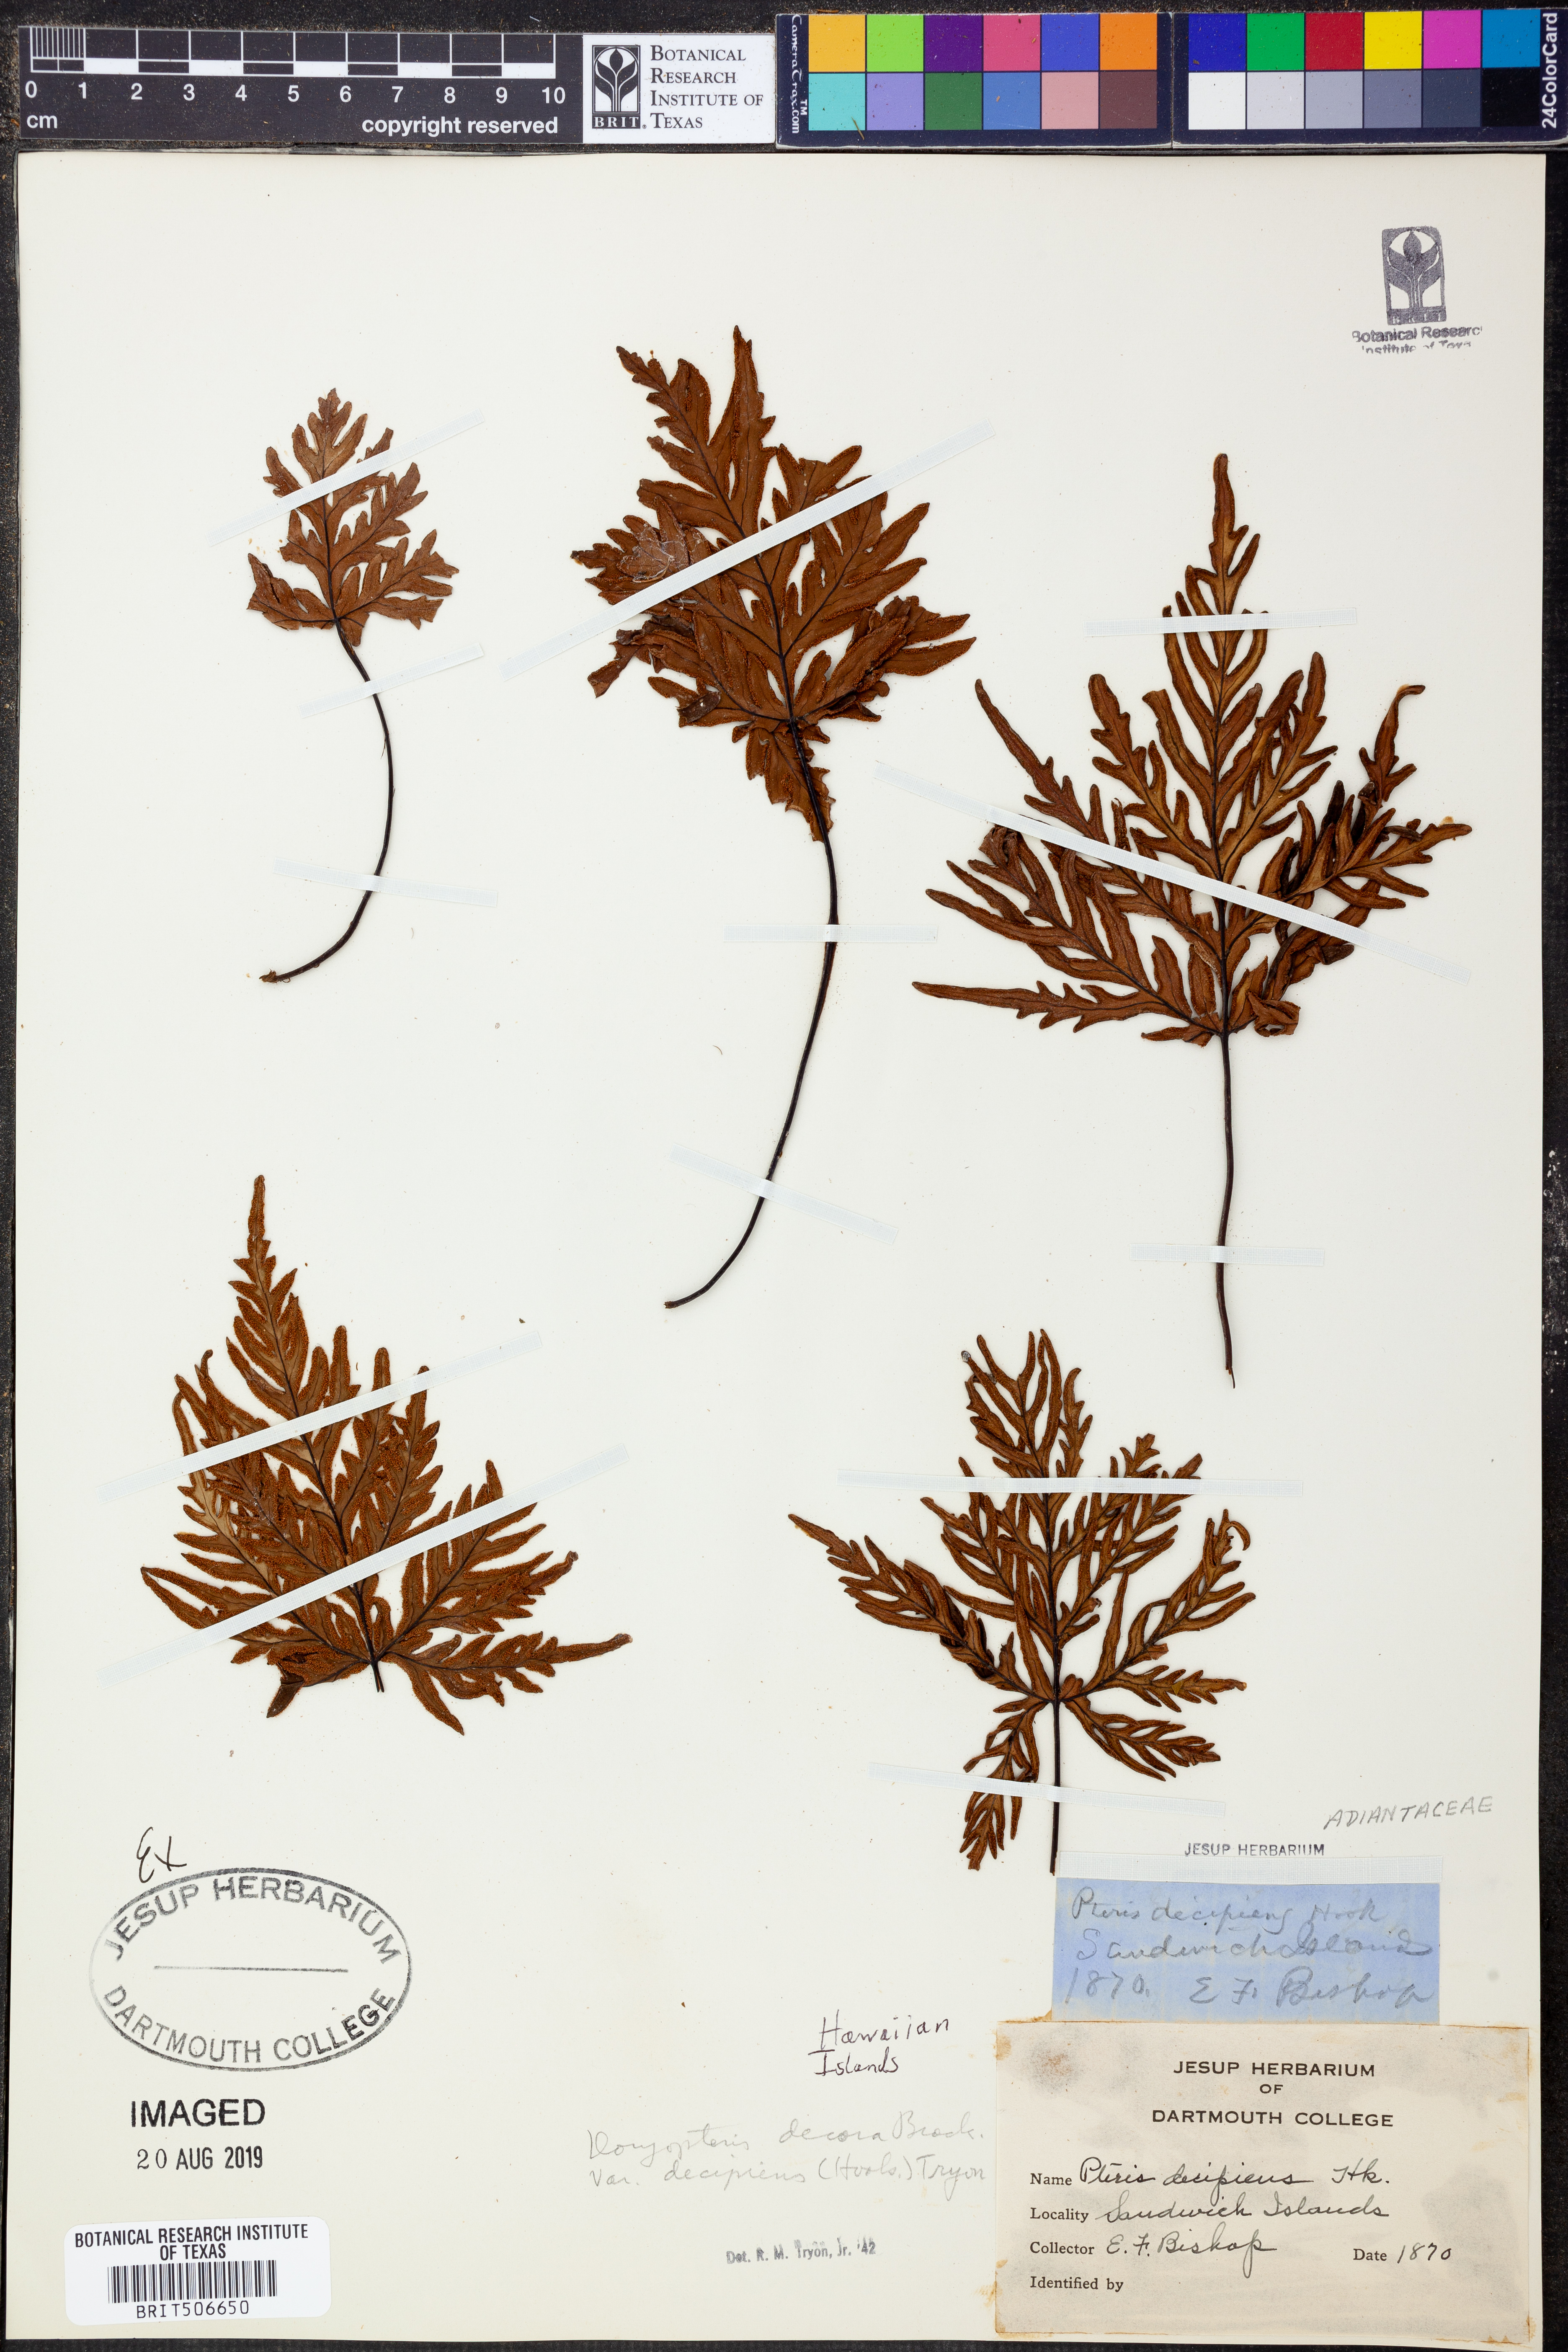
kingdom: Plantae
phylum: Tracheophyta
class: Polypodiopsida
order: Polypodiales
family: Pteridaceae
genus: Doryopteris
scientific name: Doryopteris decipiens
